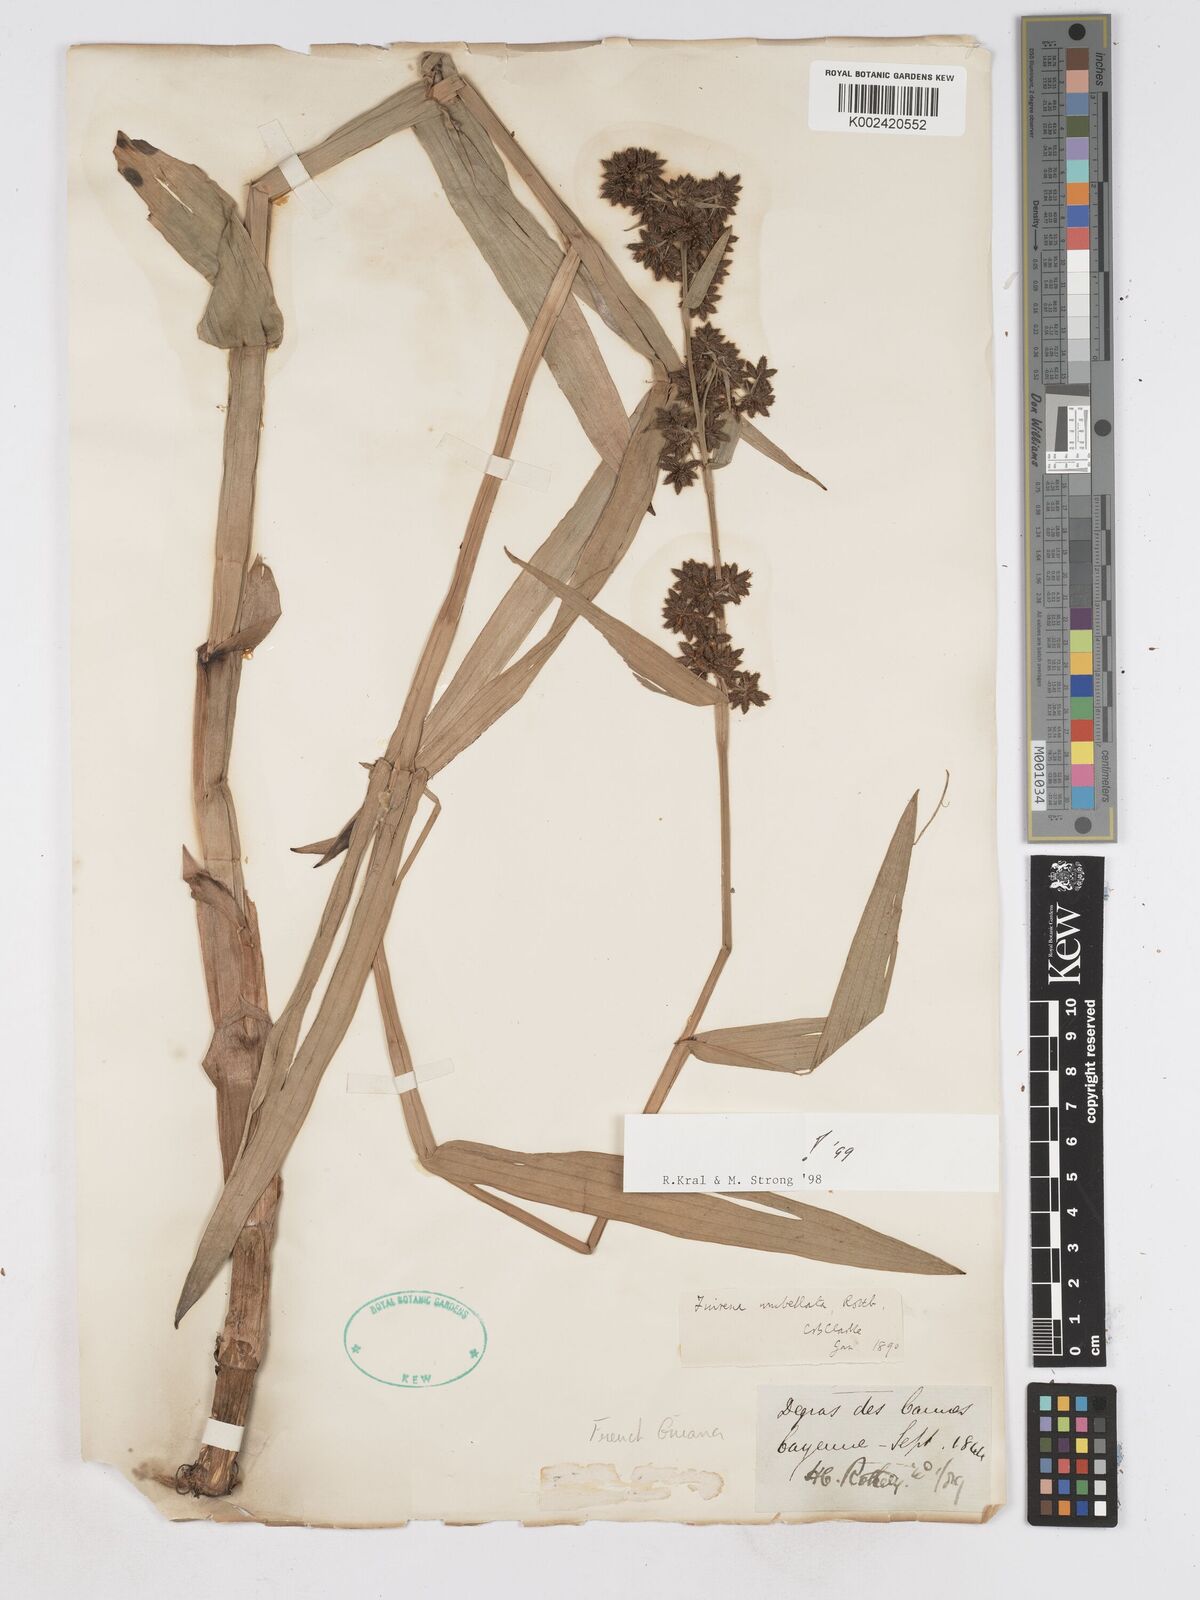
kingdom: Plantae
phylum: Tracheophyta
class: Liliopsida
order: Poales
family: Cyperaceae
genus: Fuirena
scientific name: Fuirena umbellata
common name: Yefen
